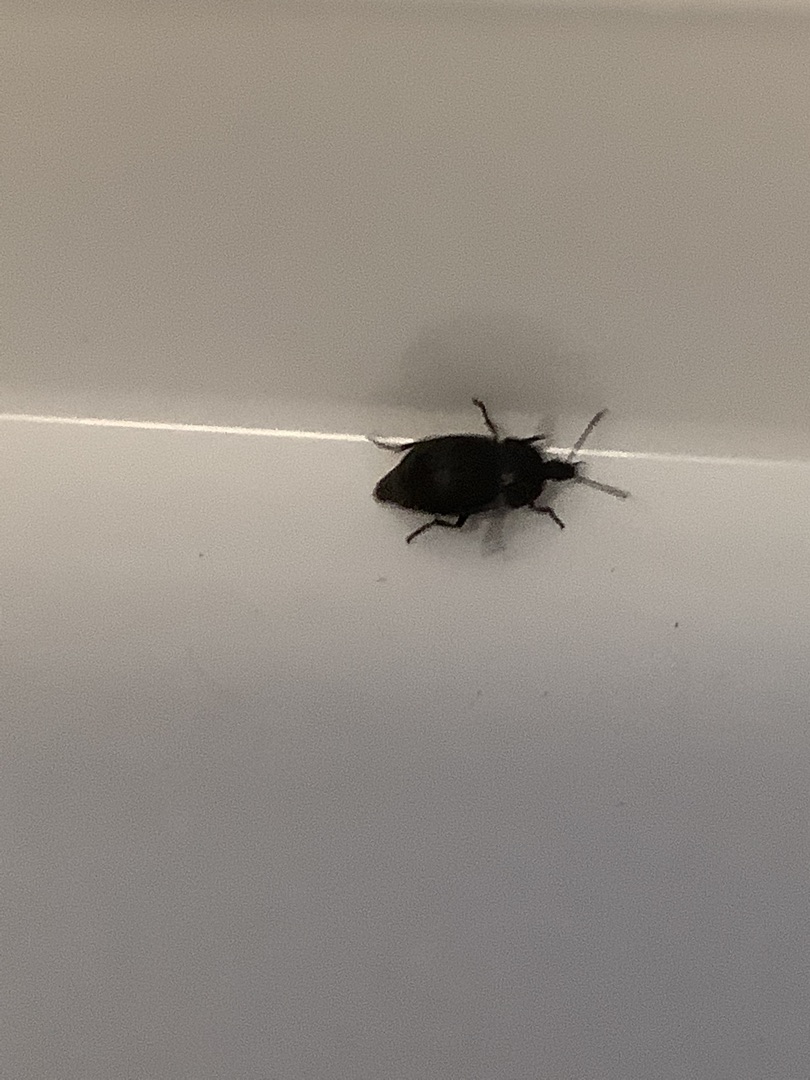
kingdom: Animalia
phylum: Arthropoda
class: Insecta
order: Coleoptera
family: Staphylinidae
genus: Silpha
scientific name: Silpha atrata
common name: Snegleådselbille
